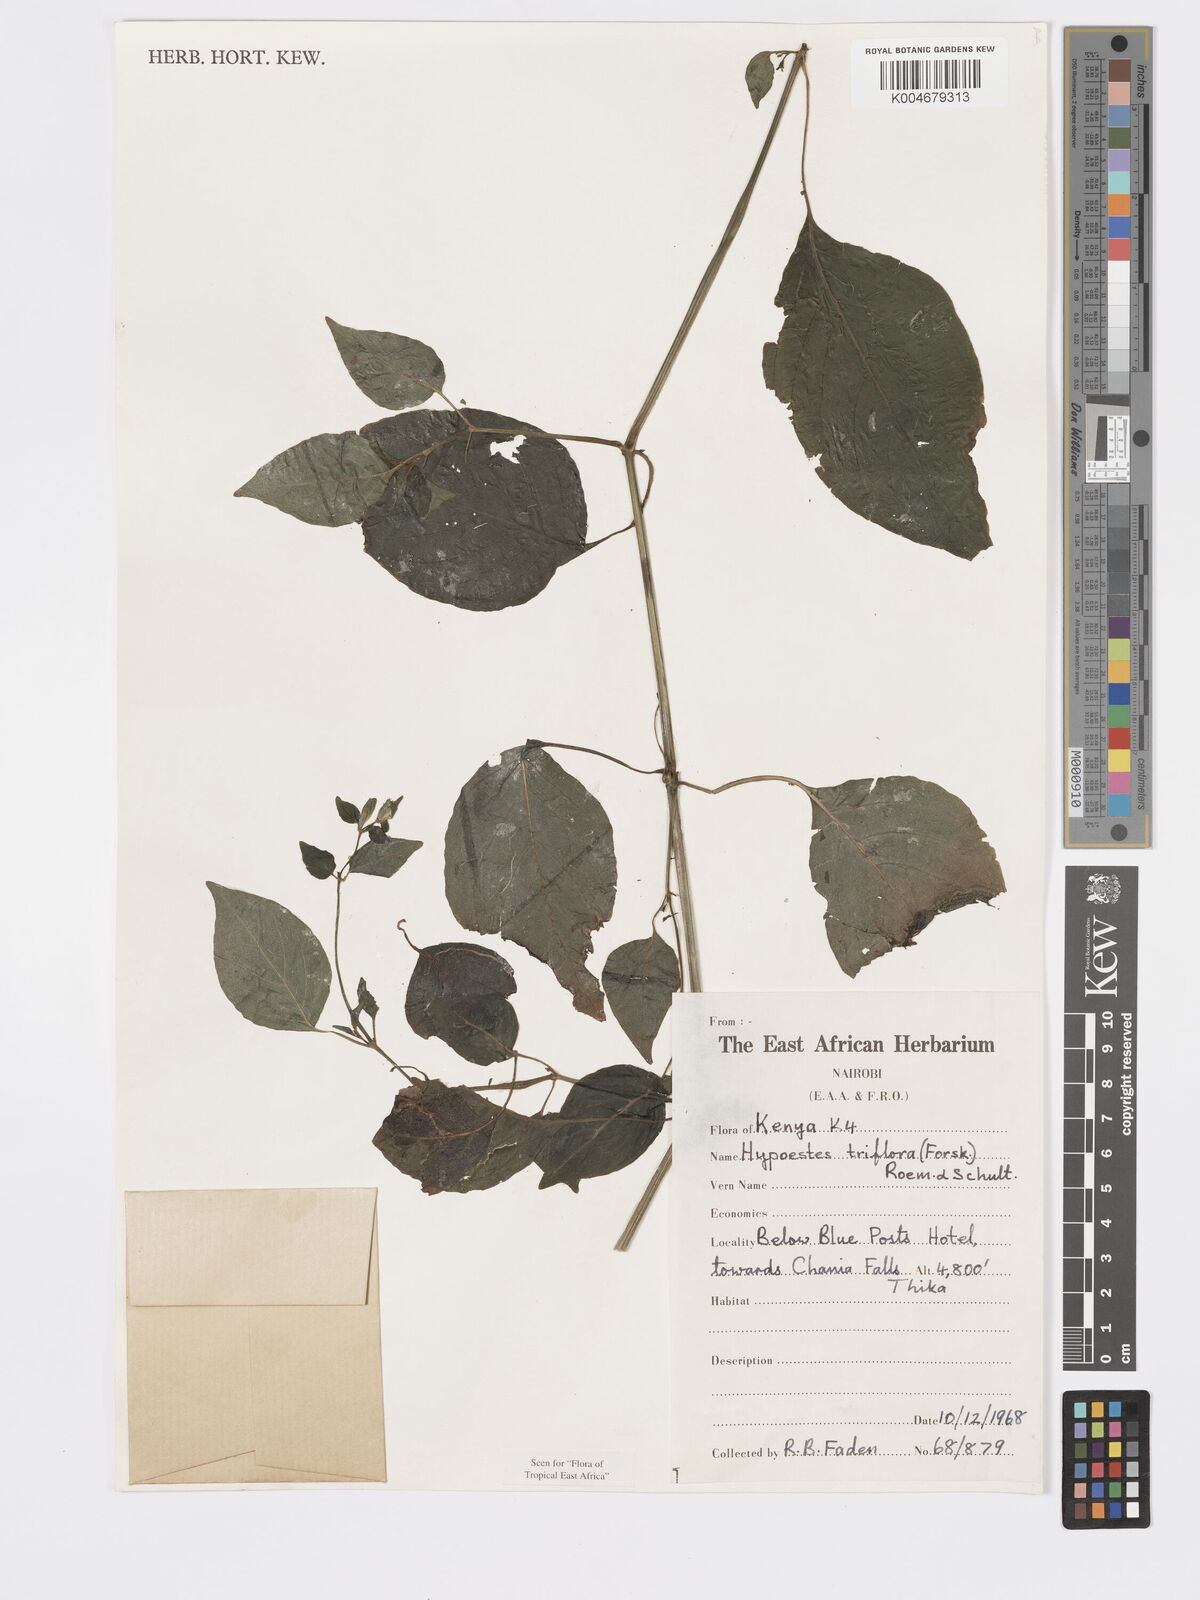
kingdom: Plantae
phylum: Tracheophyta
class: Magnoliopsida
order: Lamiales
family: Acanthaceae
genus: Hypoestes
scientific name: Hypoestes triflora
